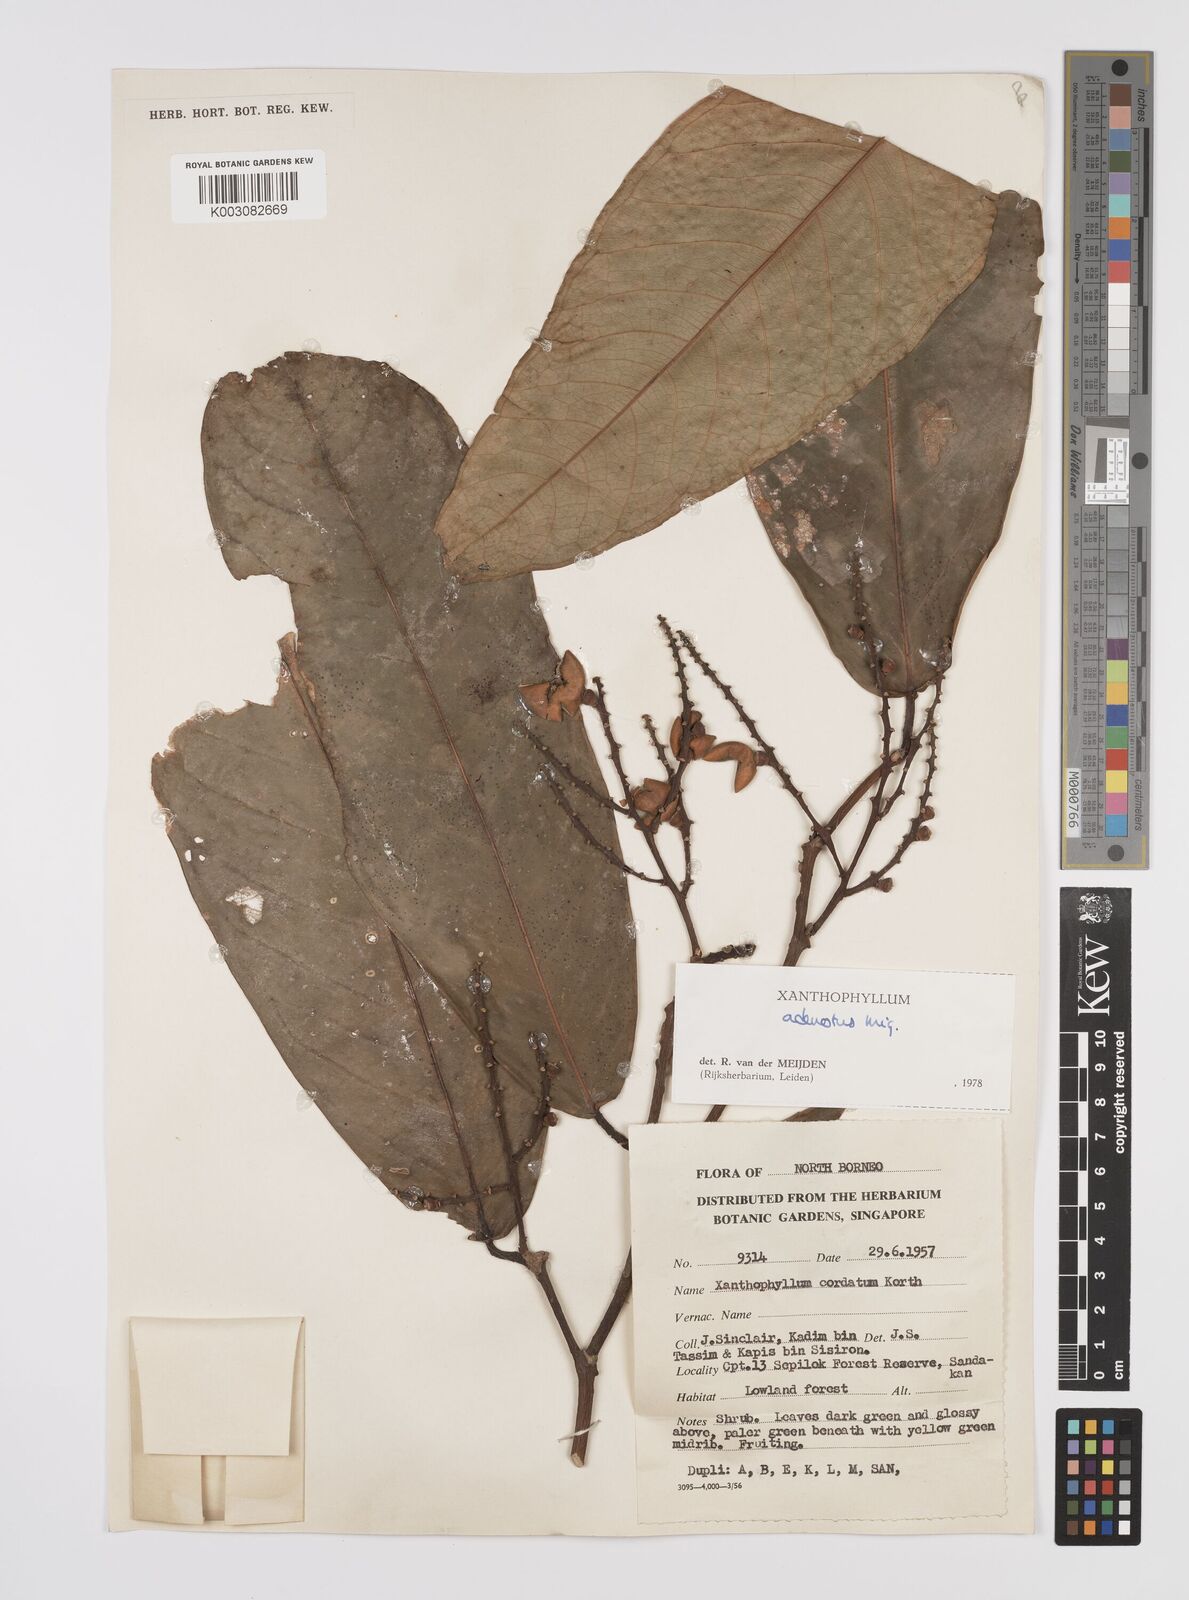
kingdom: Plantae
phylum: Tracheophyta
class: Magnoliopsida
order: Fabales
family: Polygalaceae
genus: Xanthophyllum
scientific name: Xanthophyllum adenotus
